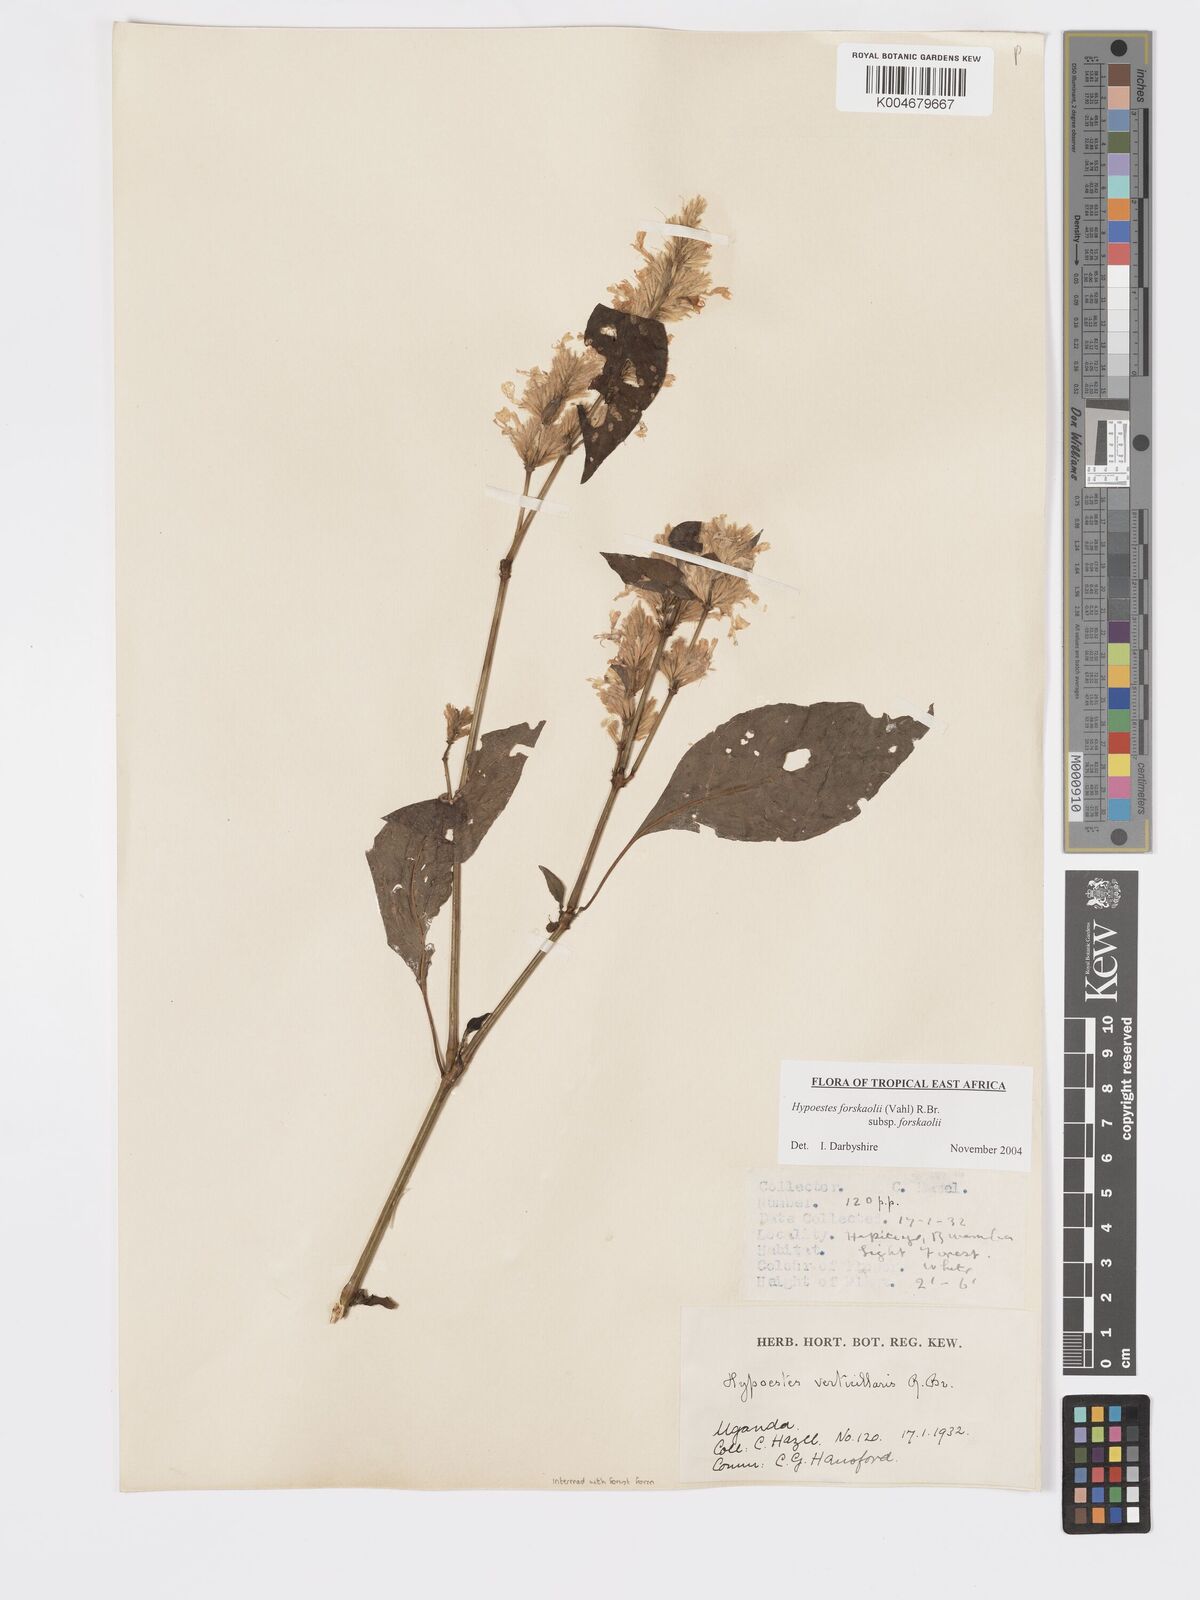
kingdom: Plantae
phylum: Tracheophyta
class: Magnoliopsida
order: Lamiales
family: Acanthaceae
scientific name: Acanthaceae
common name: Acanthaceae
